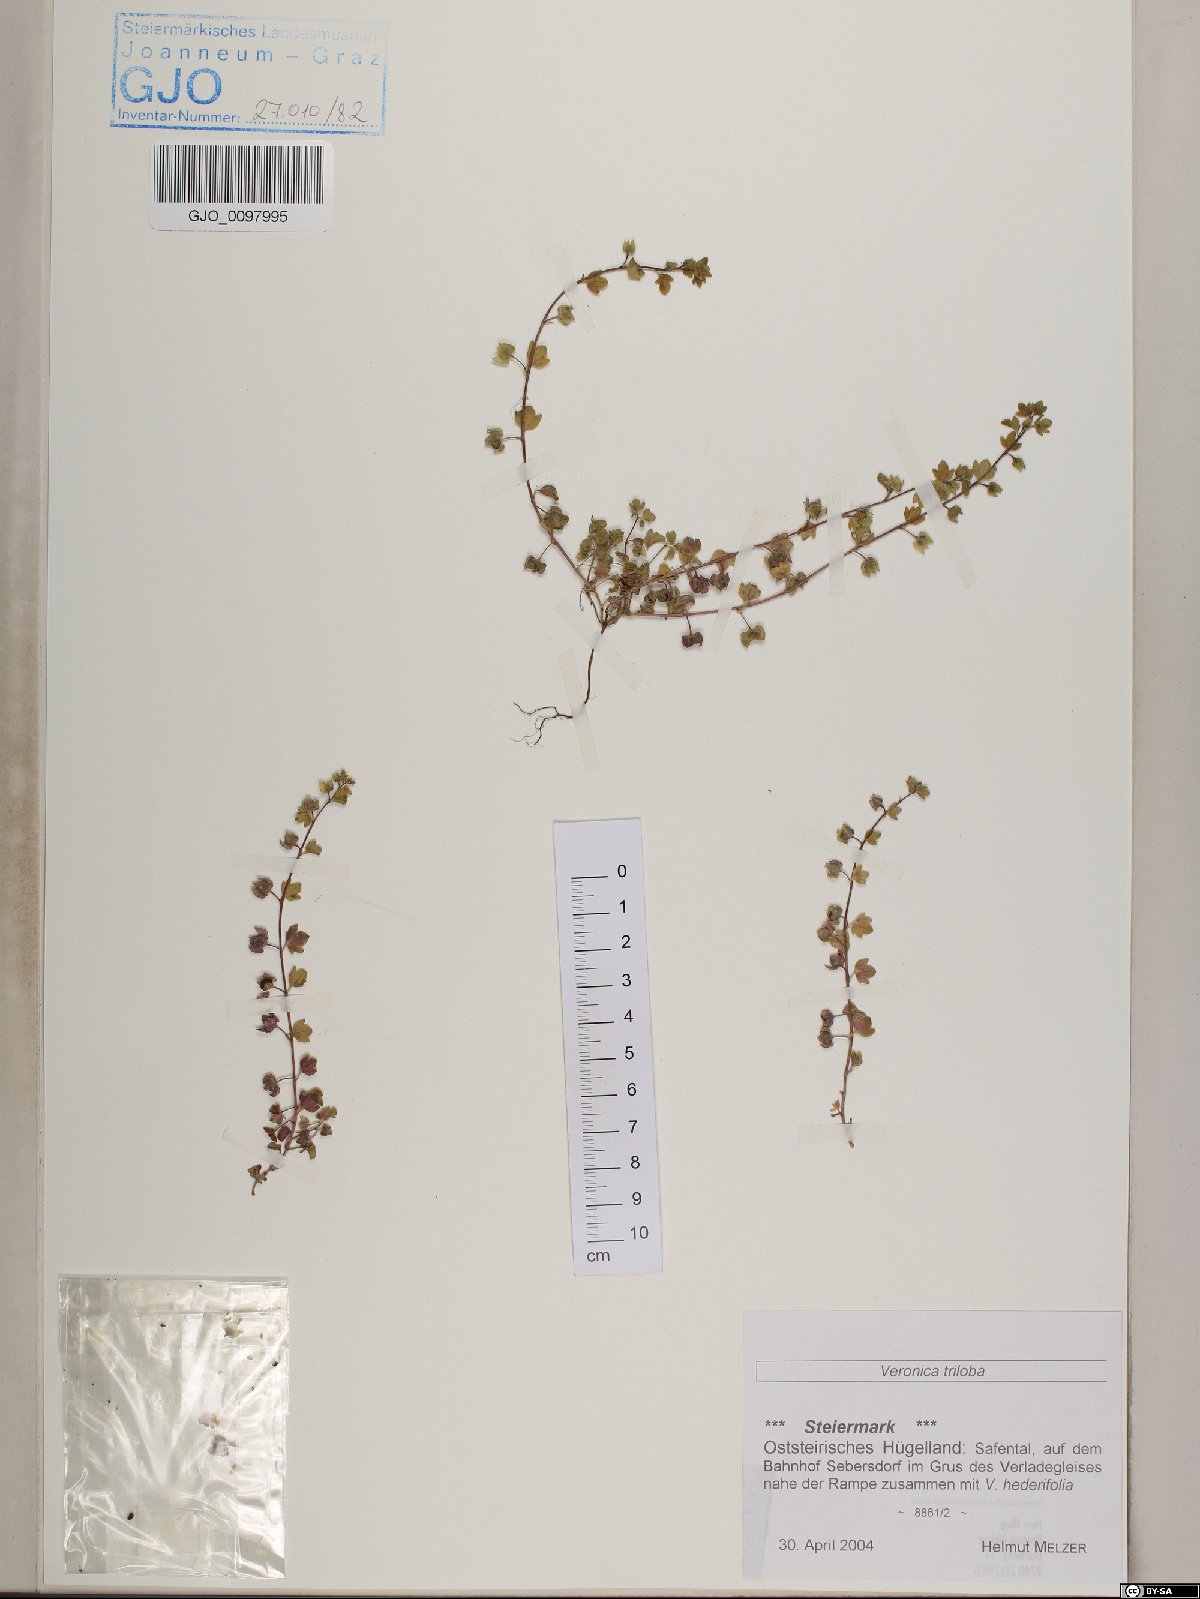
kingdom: Plantae
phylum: Tracheophyta
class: Magnoliopsida
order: Lamiales
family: Plantaginaceae
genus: Veronica
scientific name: Veronica triloba
